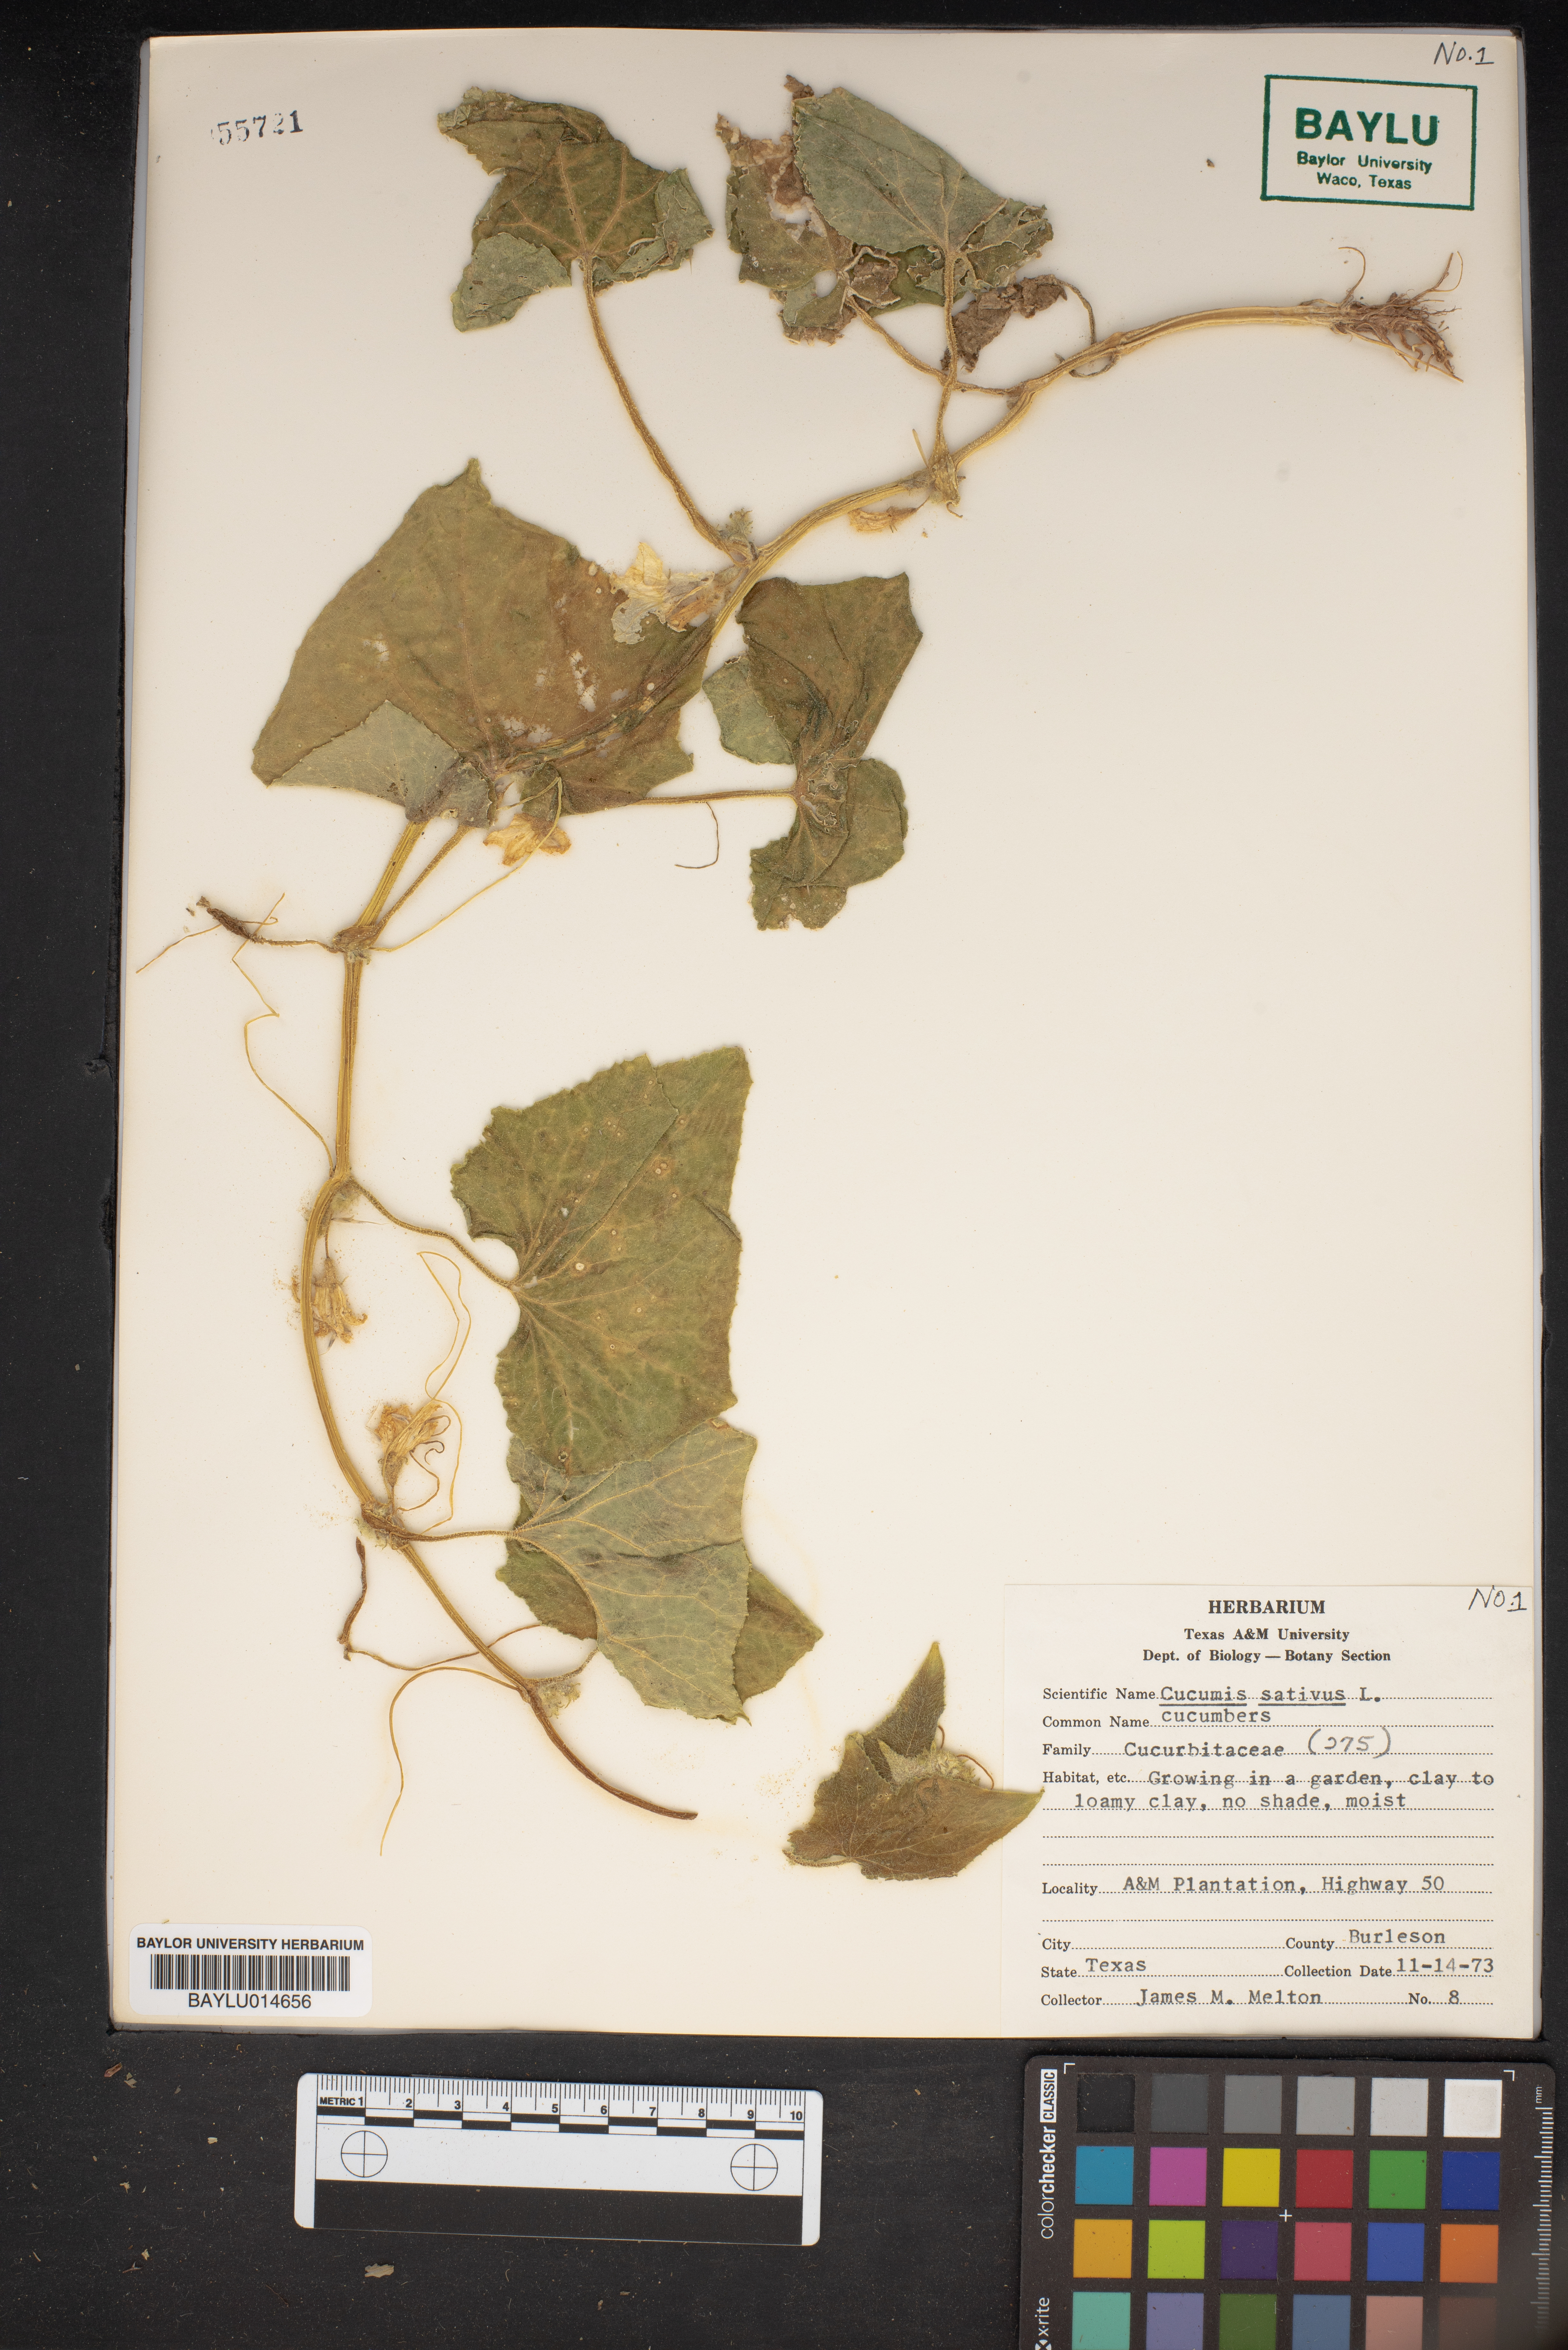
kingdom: Plantae
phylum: Tracheophyta
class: Magnoliopsida
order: Cucurbitales
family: Cucurbitaceae
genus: Cucumis
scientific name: Cucumis sativus
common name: Cucumber
